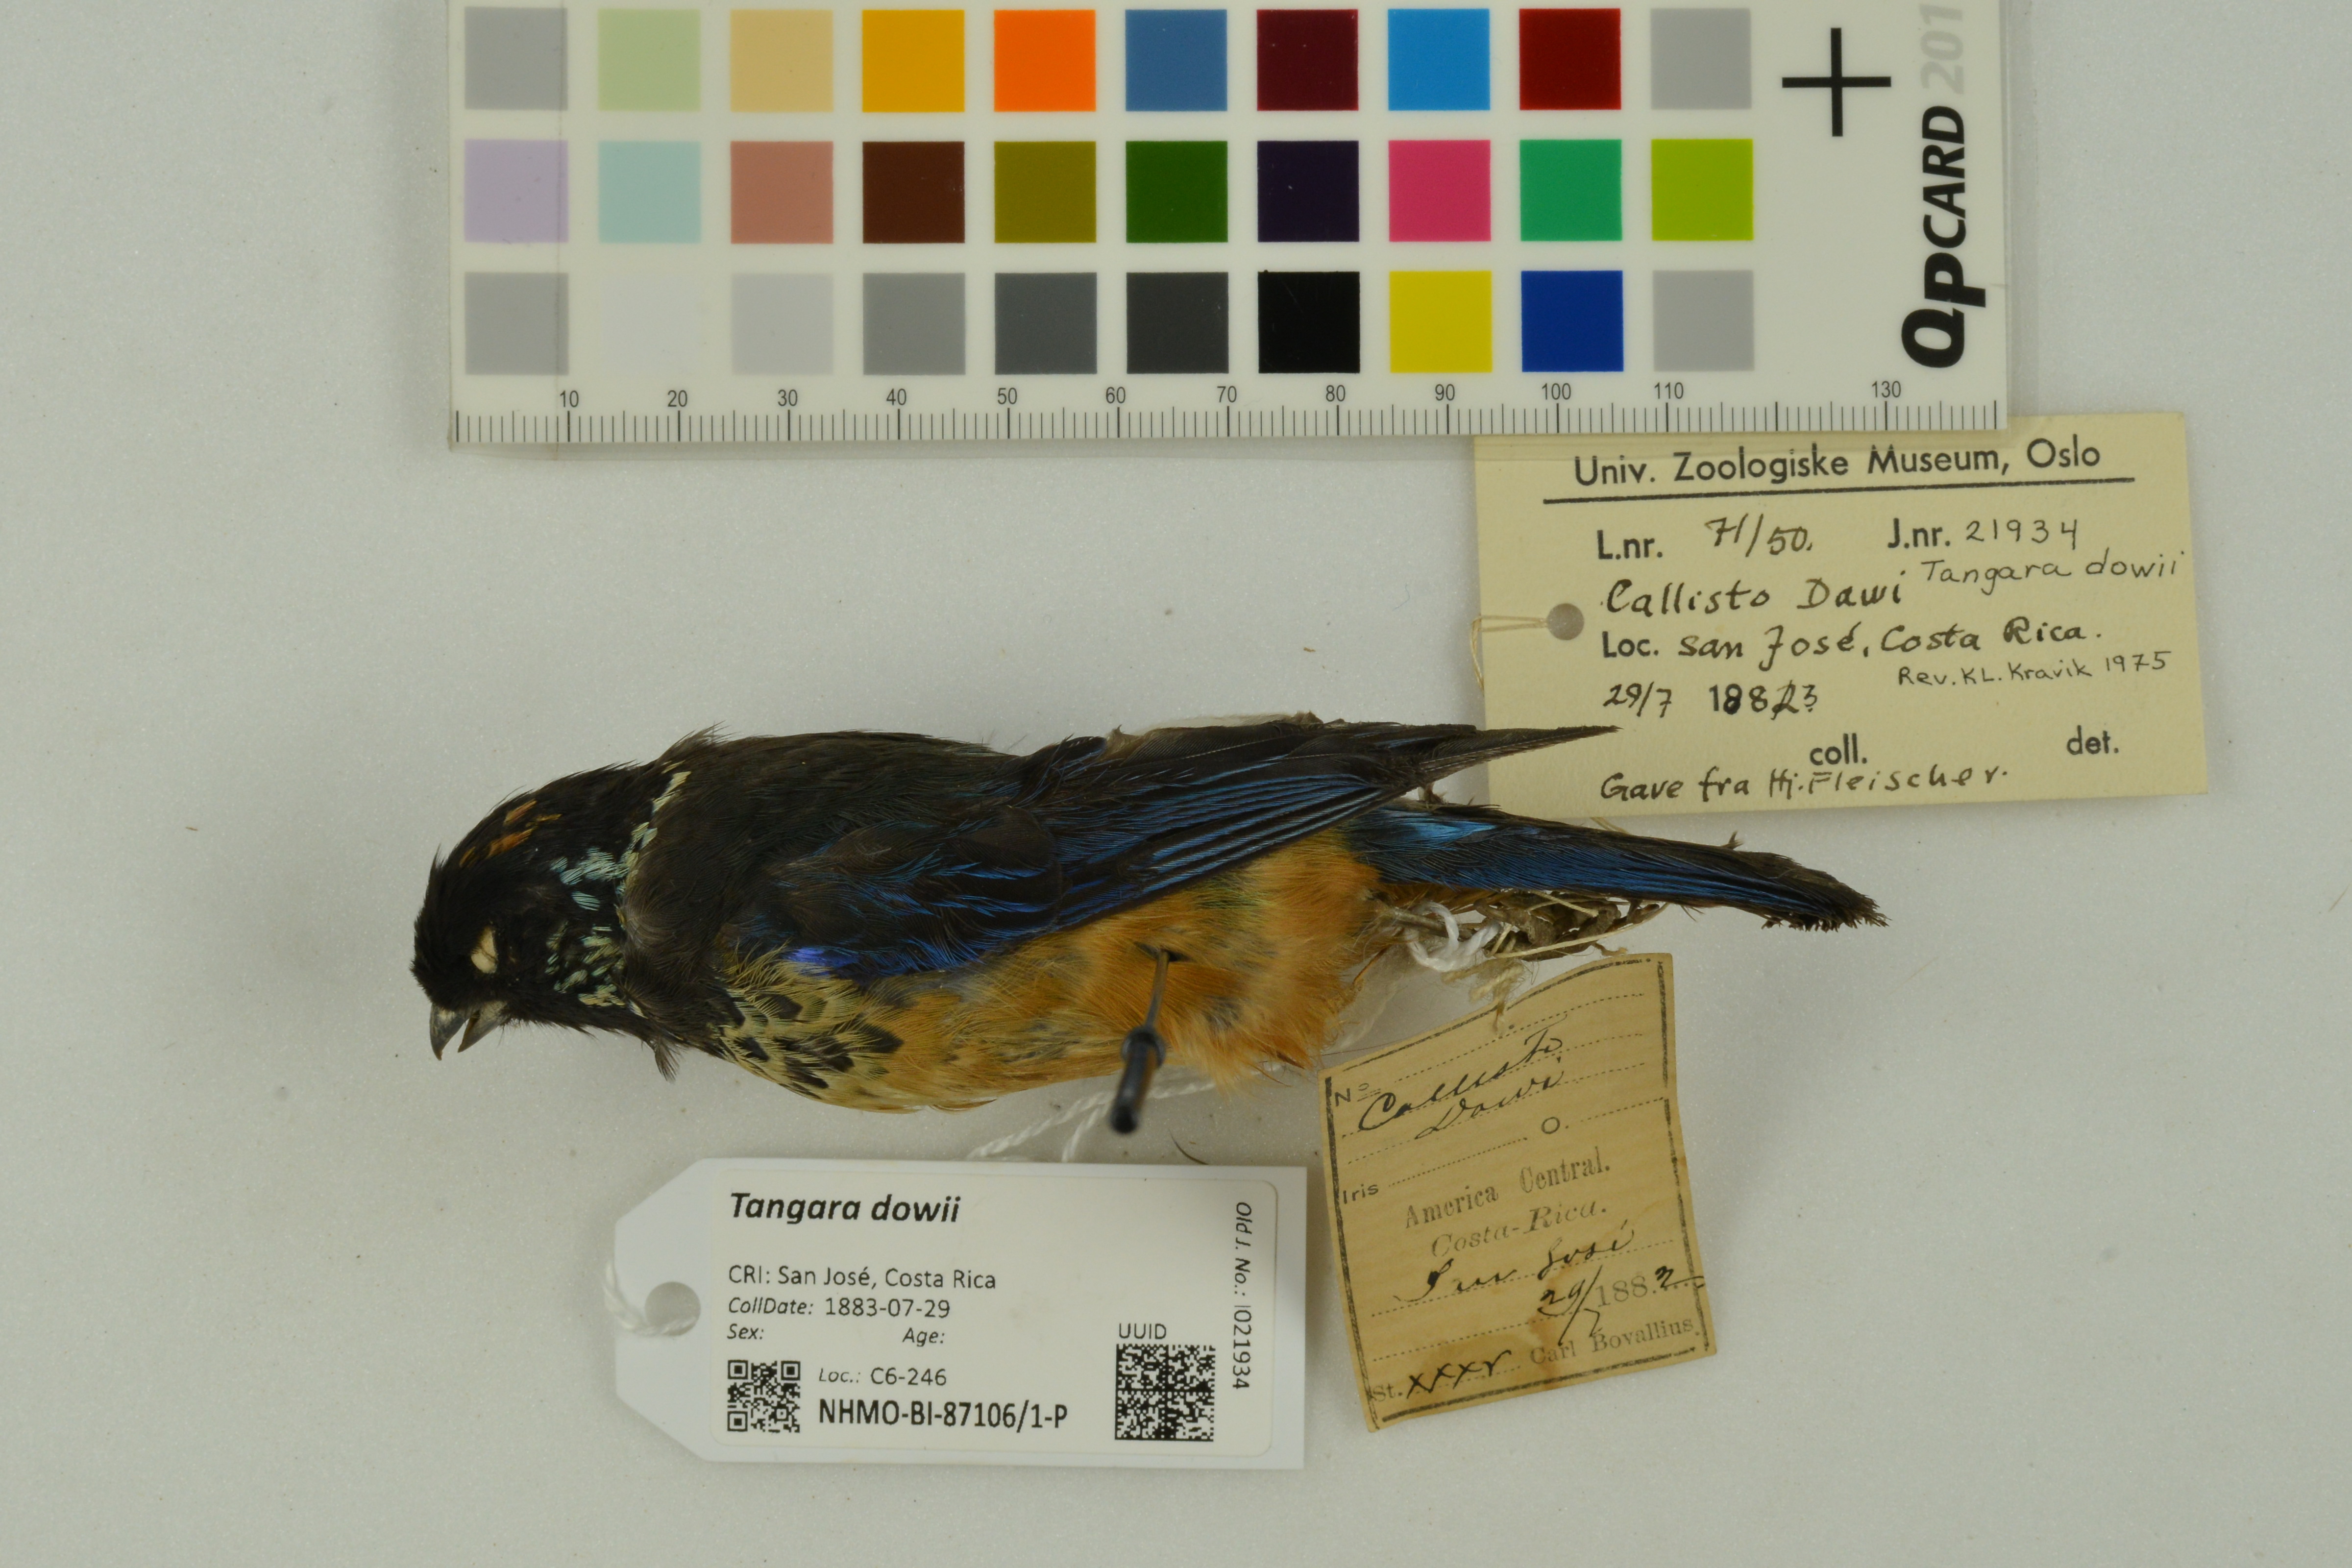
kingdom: Animalia
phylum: Chordata
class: Aves
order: Passeriformes
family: Thraupidae
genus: Tangara
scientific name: Tangara dowii
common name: Spangle-cheeked tanager
